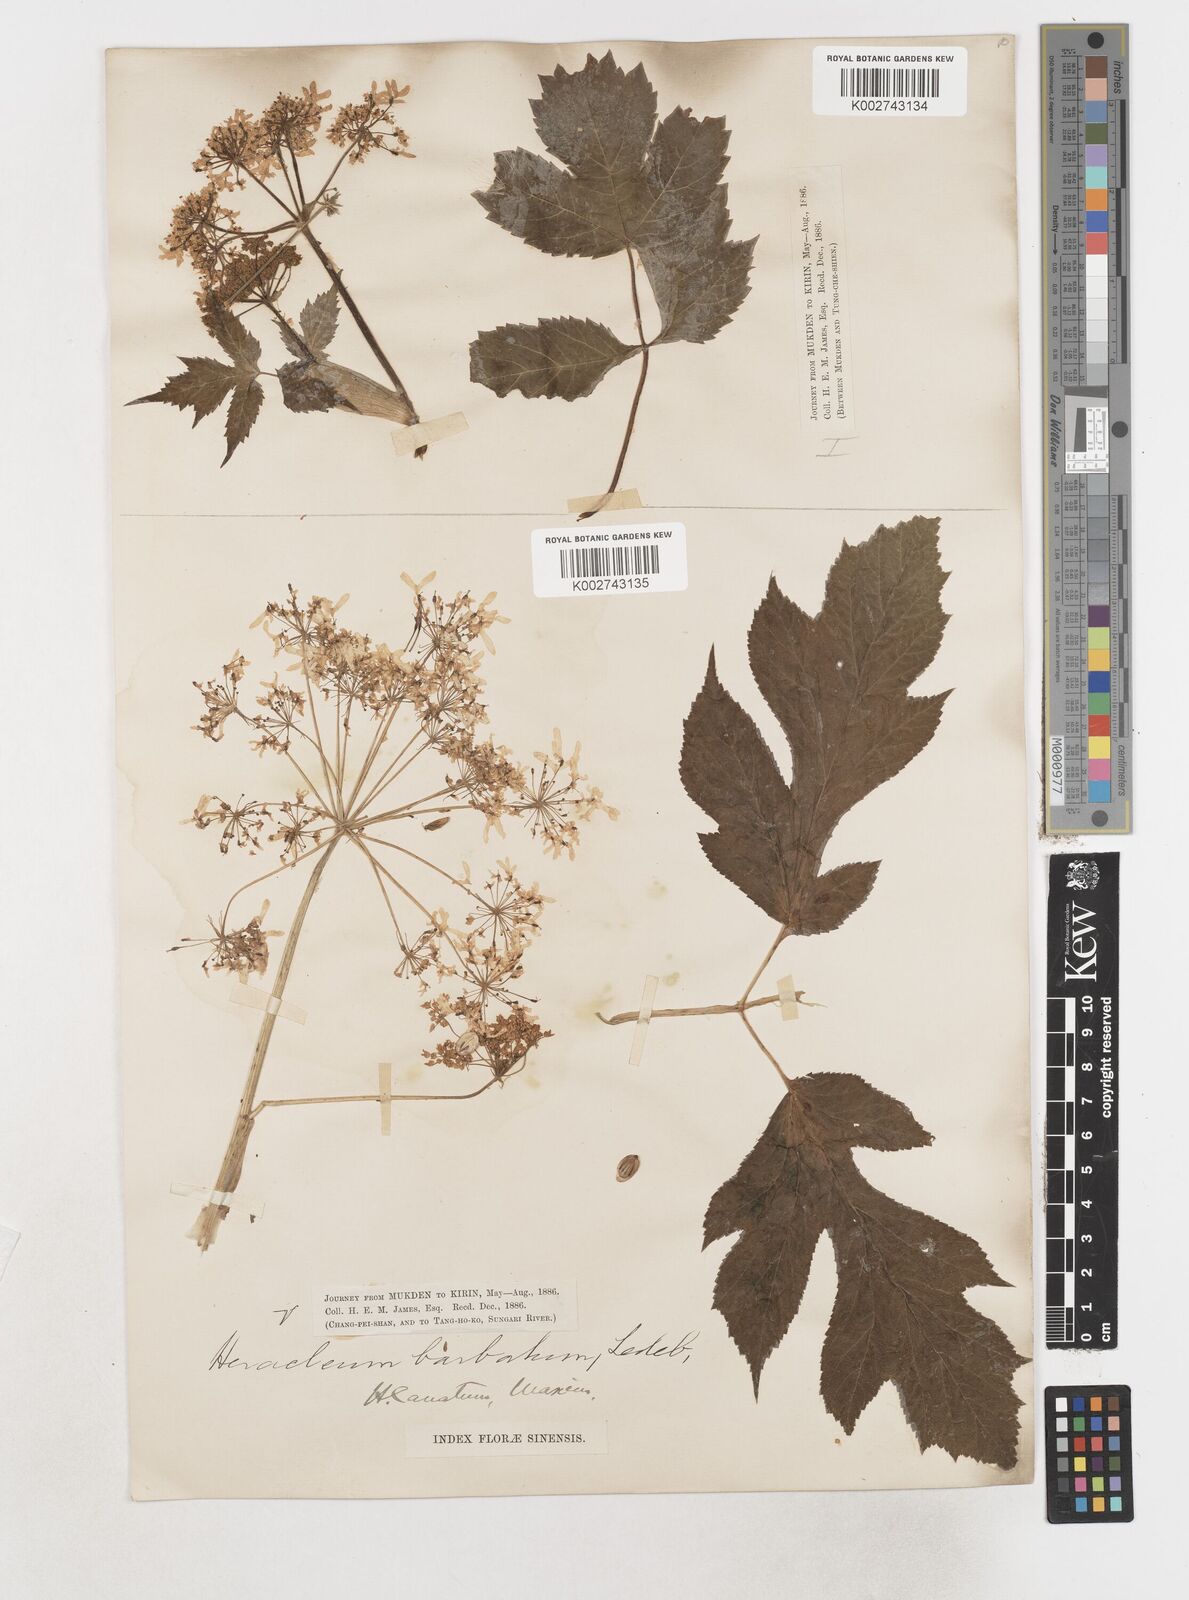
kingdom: Plantae
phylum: Tracheophyta
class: Magnoliopsida
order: Apiales
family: Apiaceae
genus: Heracleum
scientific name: Heracleum dissectum
